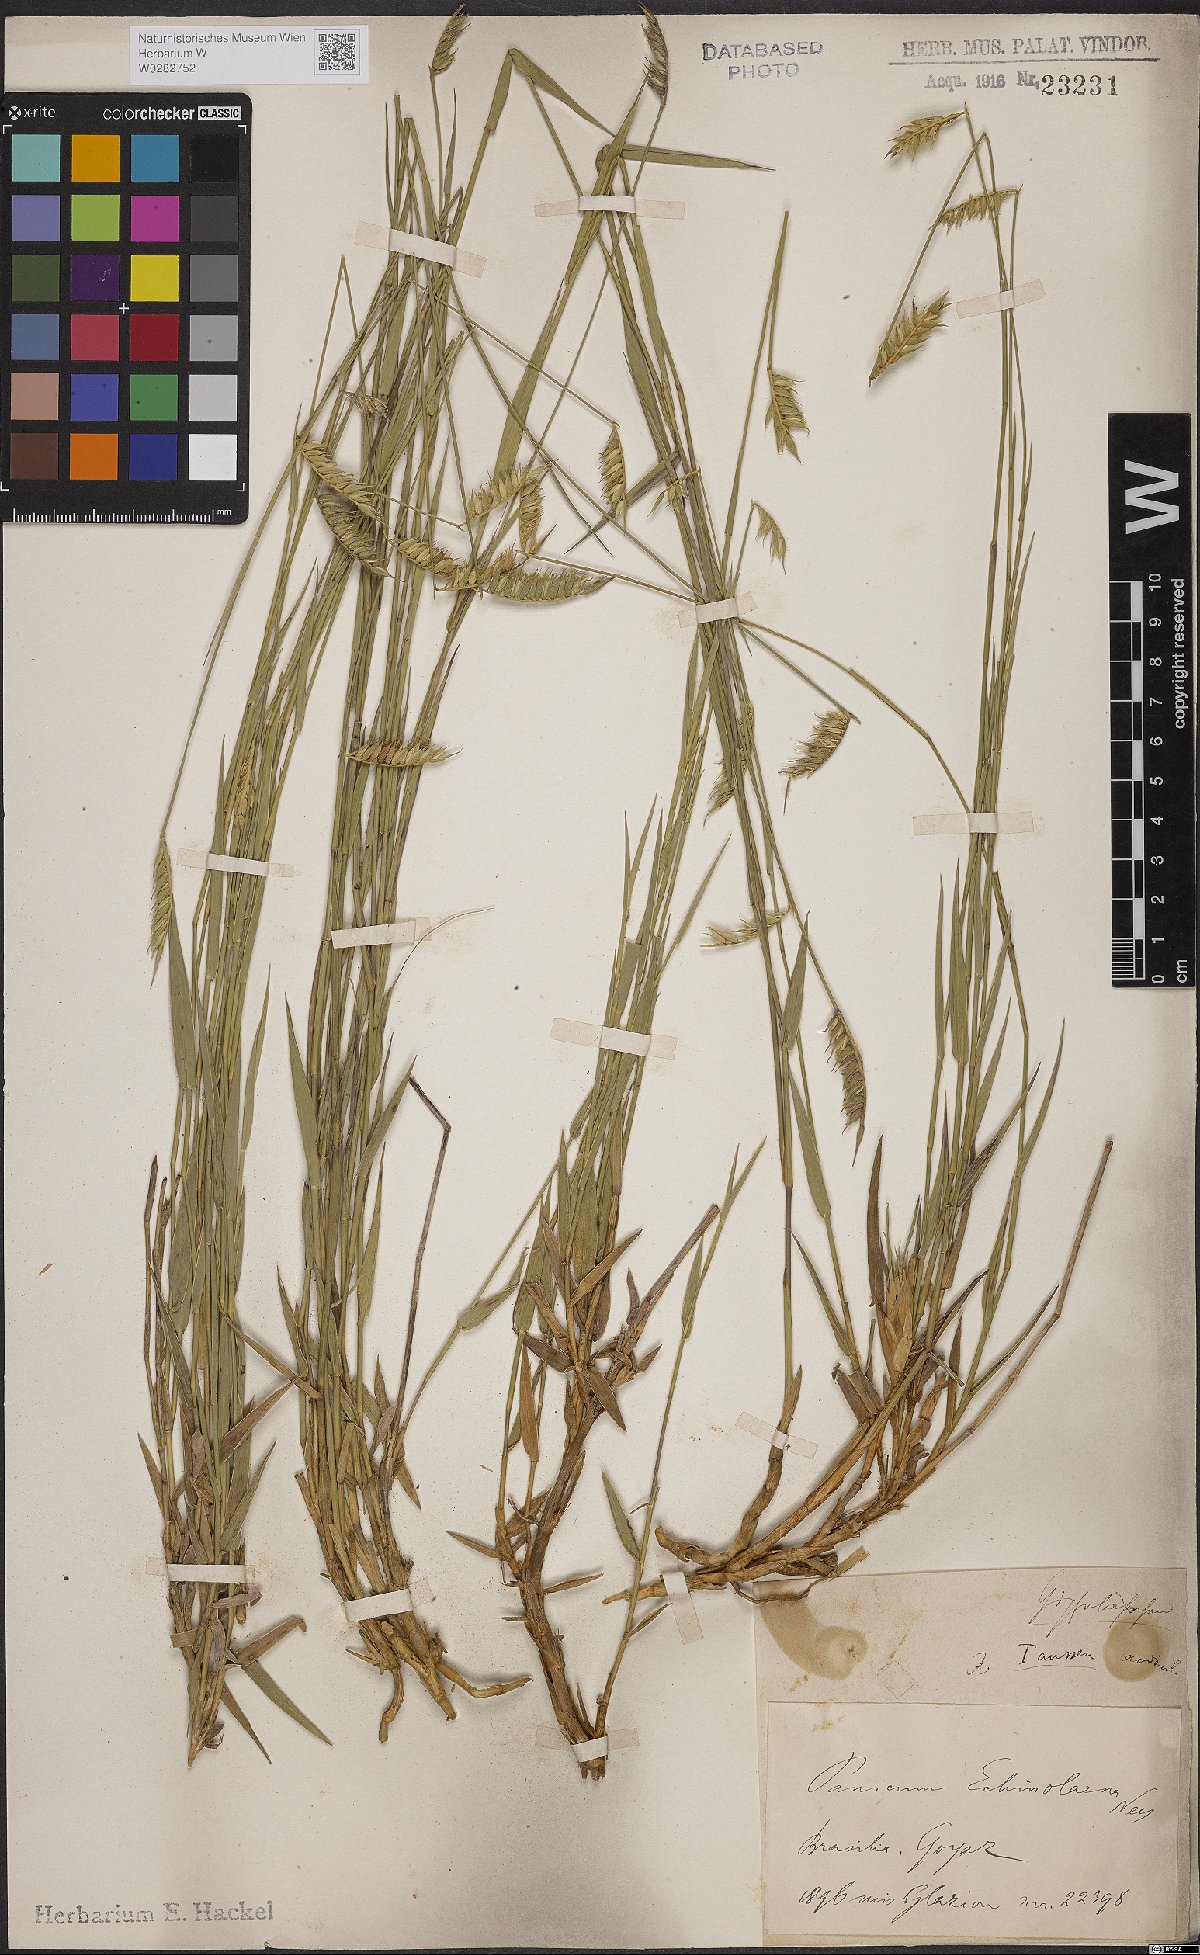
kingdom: Plantae
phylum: Tracheophyta
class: Liliopsida
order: Poales
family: Poaceae
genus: Echinolaena
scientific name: Echinolaena inflexa
